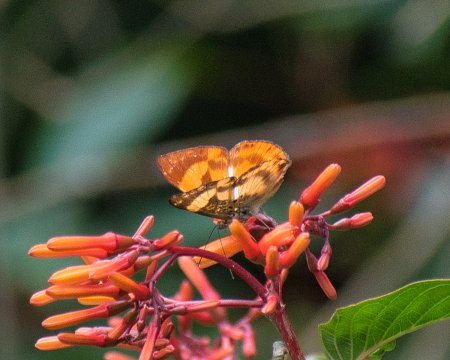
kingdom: Animalia
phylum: Arthropoda
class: Insecta
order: Lepidoptera
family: Riodinidae
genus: Nymula
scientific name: Nymula odites
